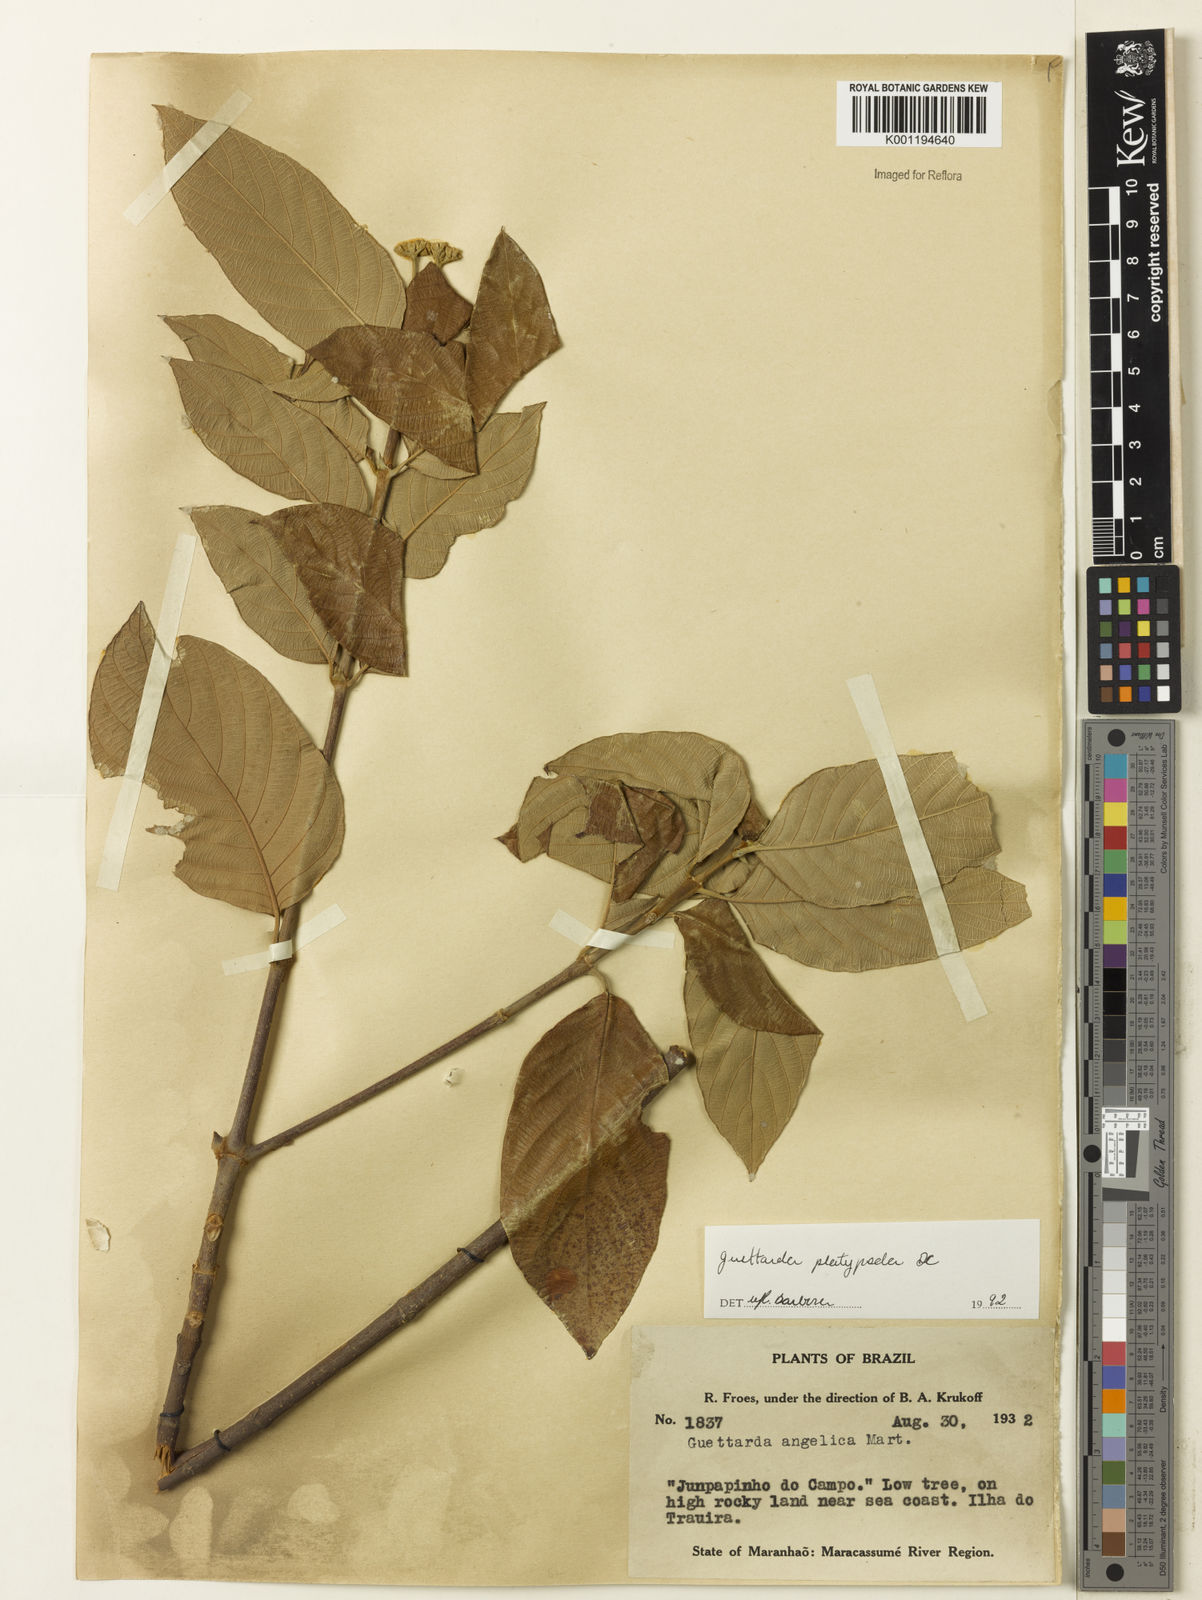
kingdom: Plantae
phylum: Tracheophyta
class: Magnoliopsida
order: Gentianales
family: Rubiaceae
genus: Guettarda
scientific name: Guettarda platypoda
